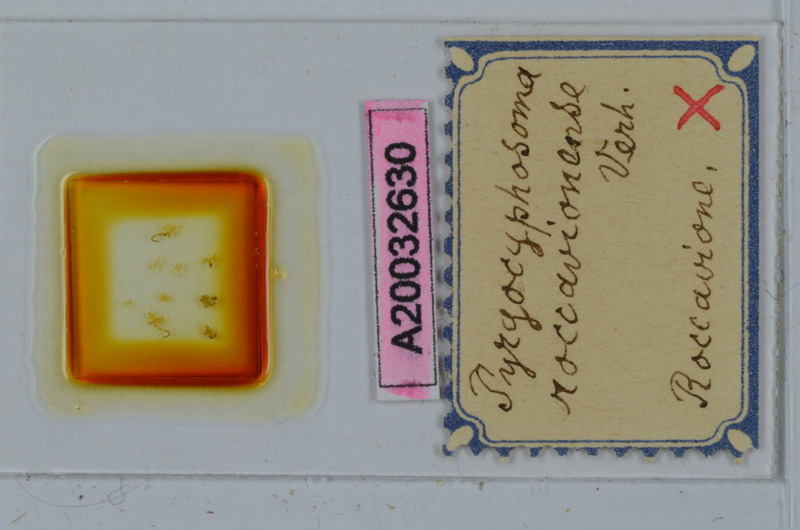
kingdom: Animalia
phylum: Arthropoda
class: Diplopoda
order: Chordeumatida
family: Craspedosomatidae
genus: Pyrgocyphosoma
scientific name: Pyrgocyphosoma roccavionense
